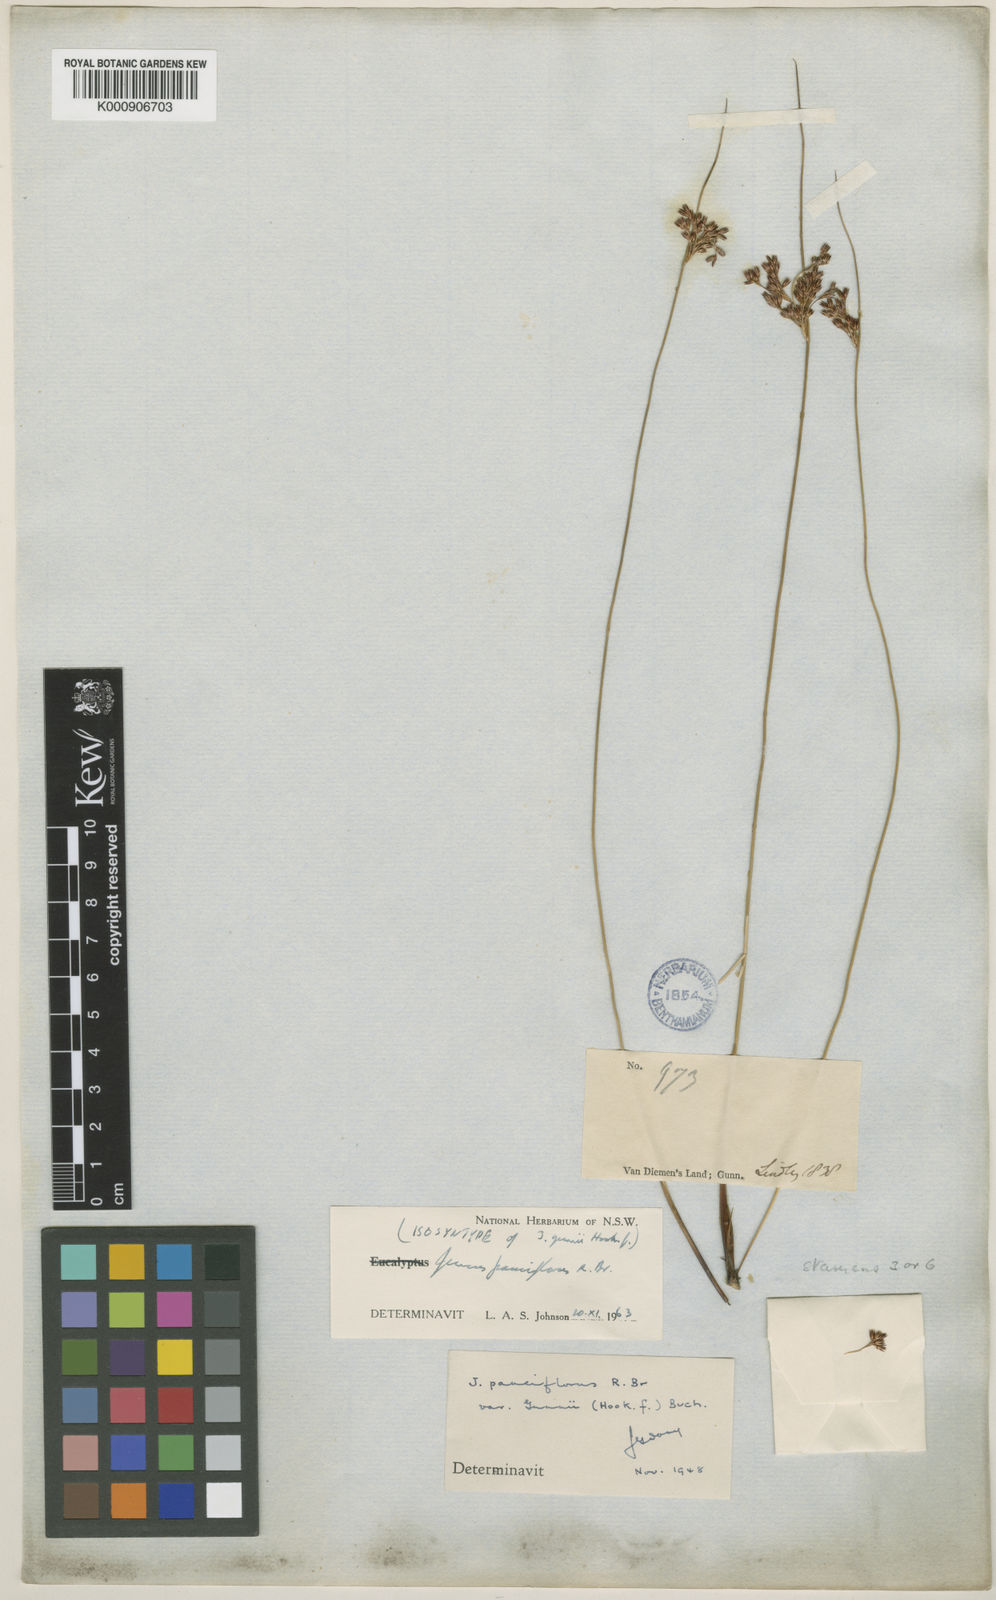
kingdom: Plantae
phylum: Tracheophyta
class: Liliopsida
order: Poales
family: Juncaceae
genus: Juncus
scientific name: Juncus pauciflorus
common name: Loose-flowered rush
